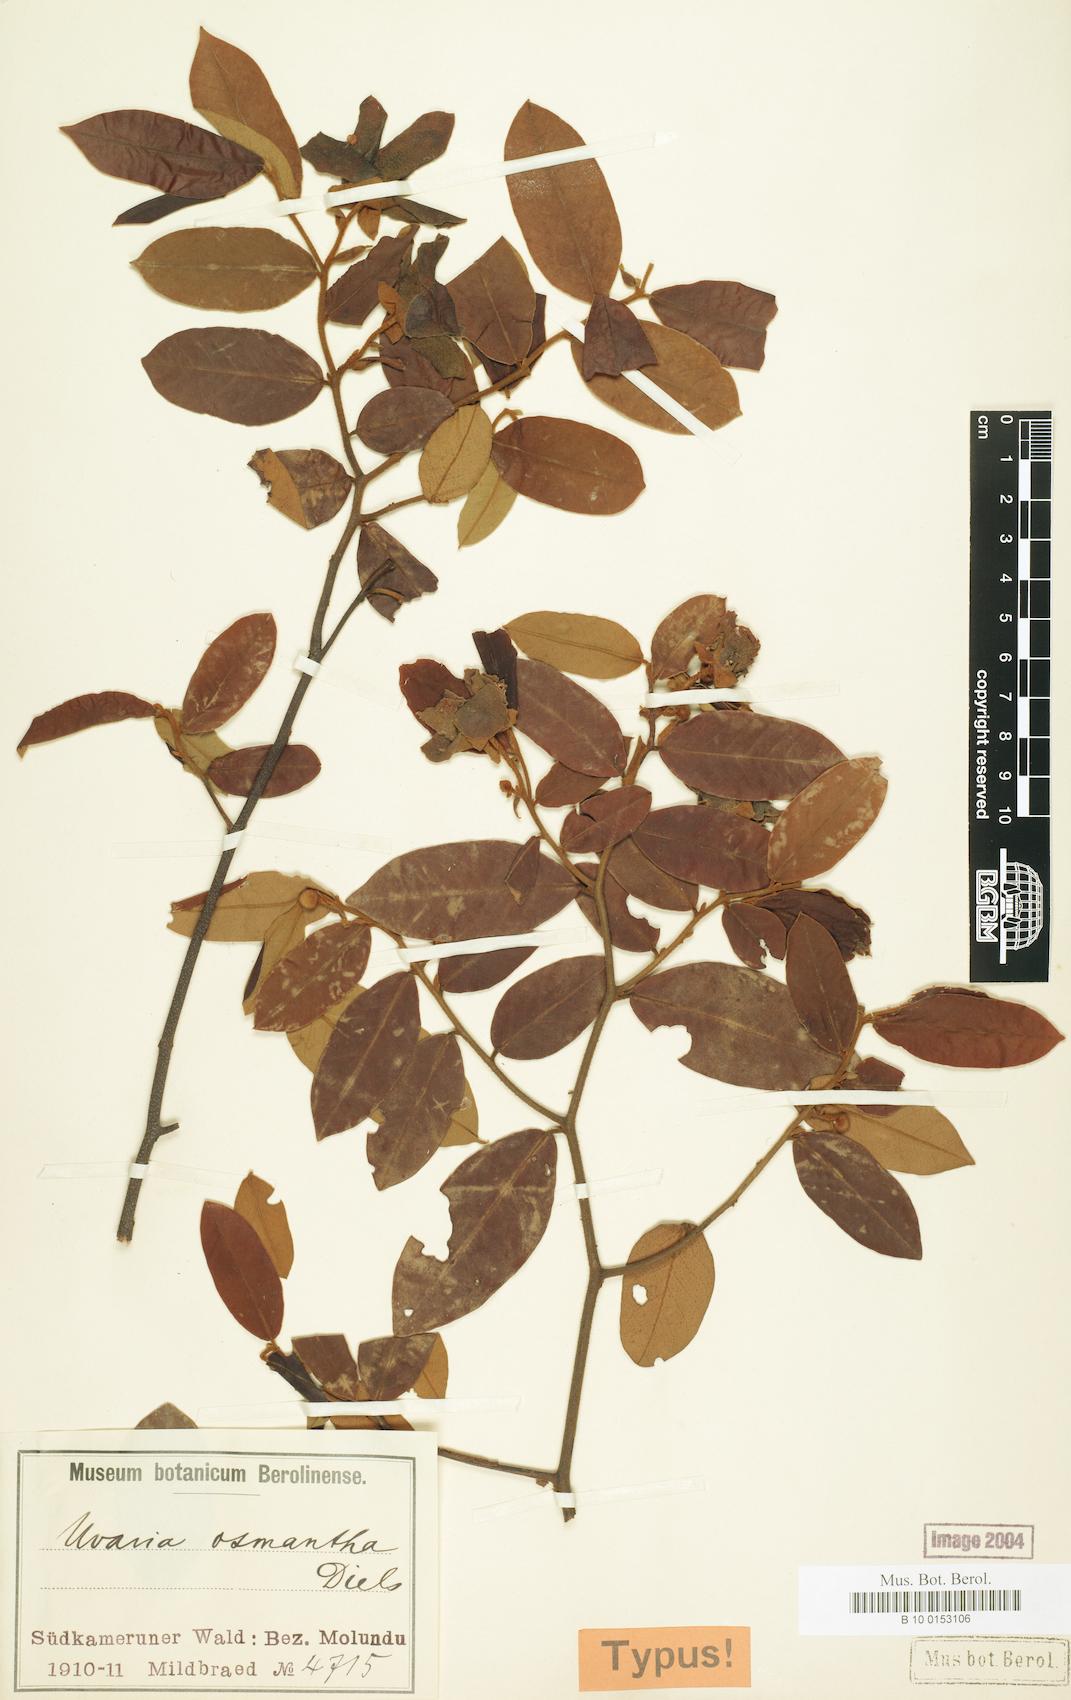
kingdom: Plantae
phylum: Tracheophyta
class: Magnoliopsida
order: Magnoliales
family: Annonaceae
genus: Uvaria
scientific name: Uvaria osmantha
